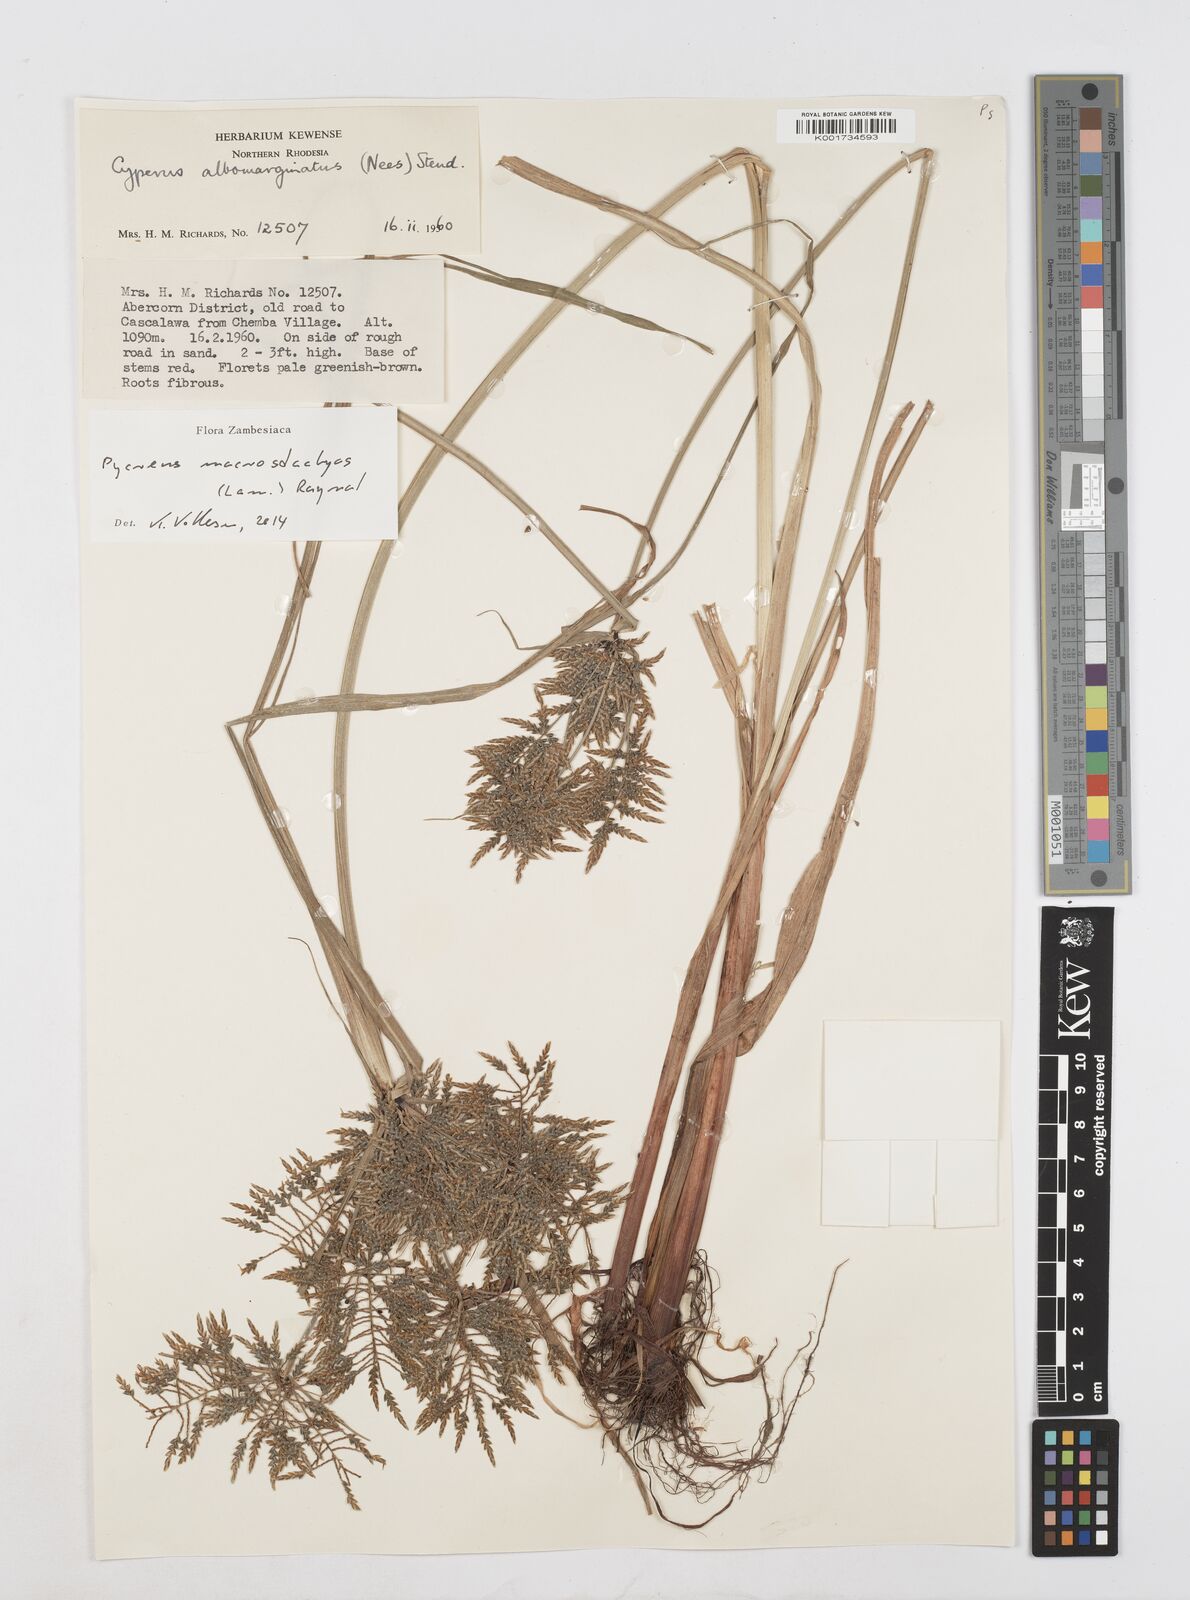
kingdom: Plantae
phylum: Tracheophyta
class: Liliopsida
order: Poales
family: Cyperaceae
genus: Cyperus
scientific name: Cyperus macrostachyos
